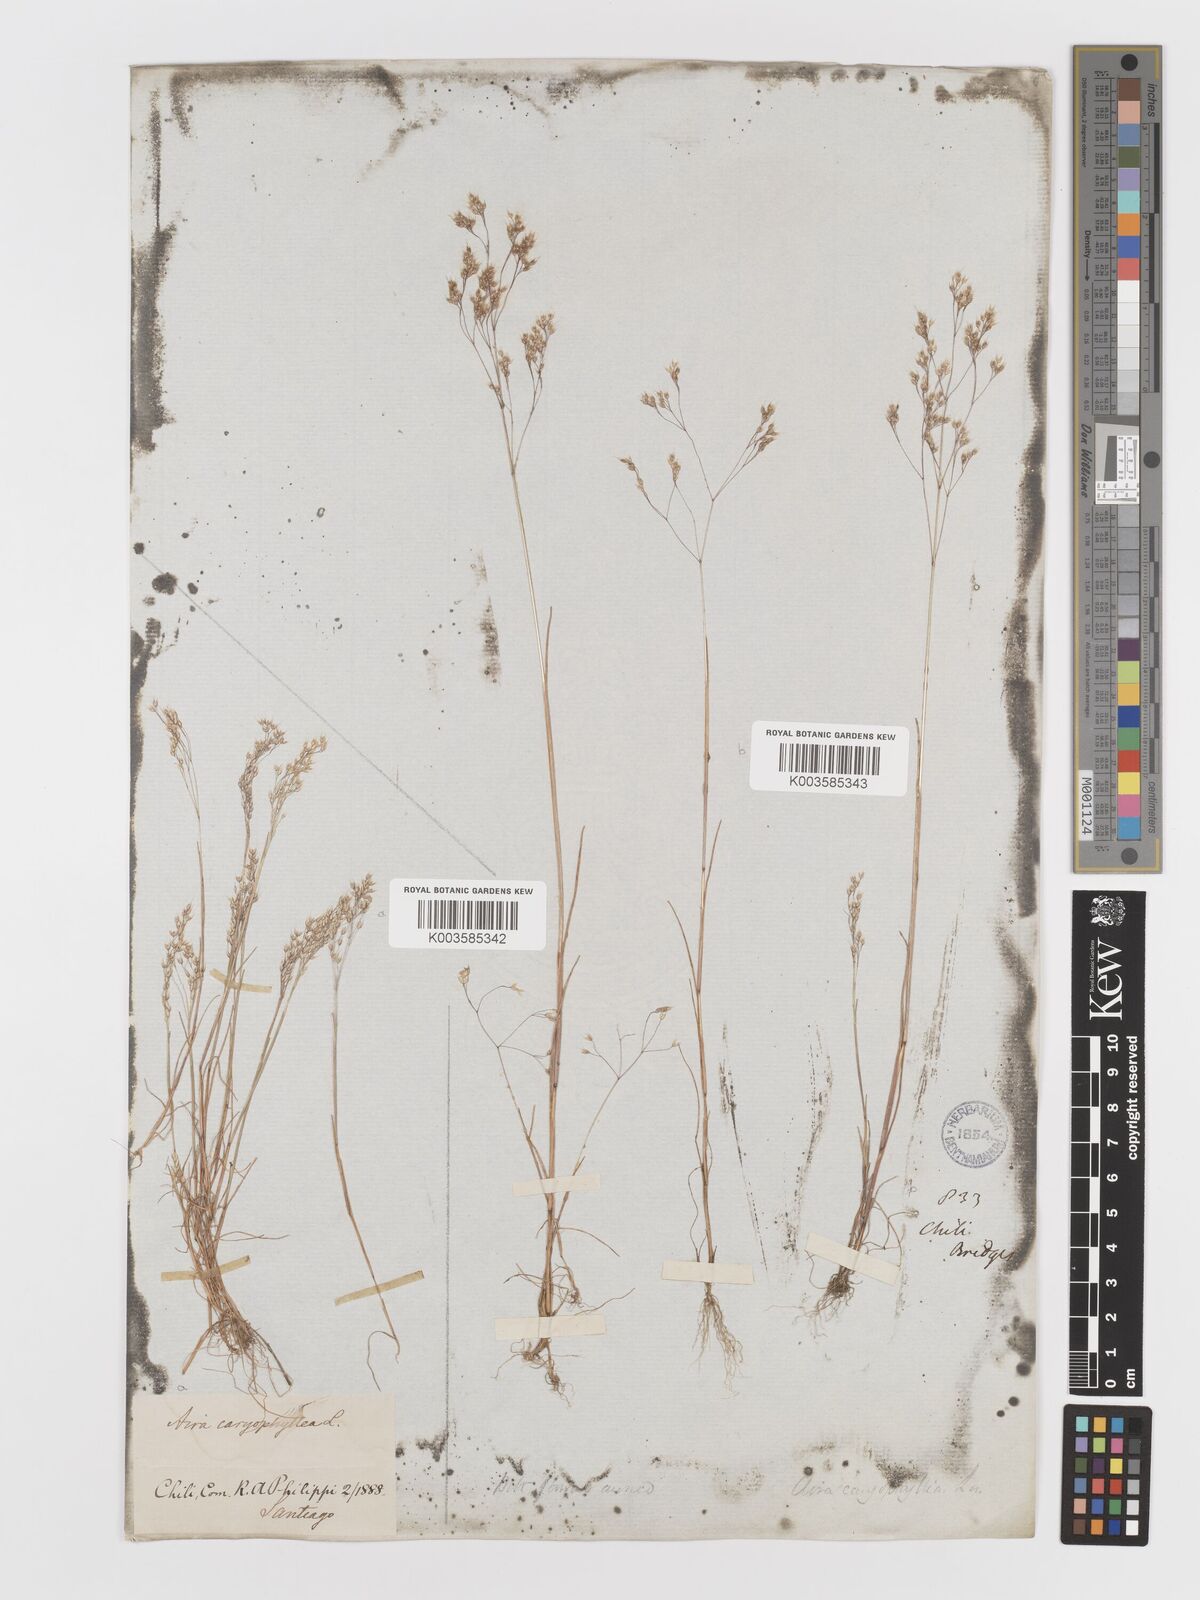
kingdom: Plantae
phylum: Tracheophyta
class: Liliopsida
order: Poales
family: Poaceae
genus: Aira
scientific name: Aira caryophyllea
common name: Silver hairgrass
